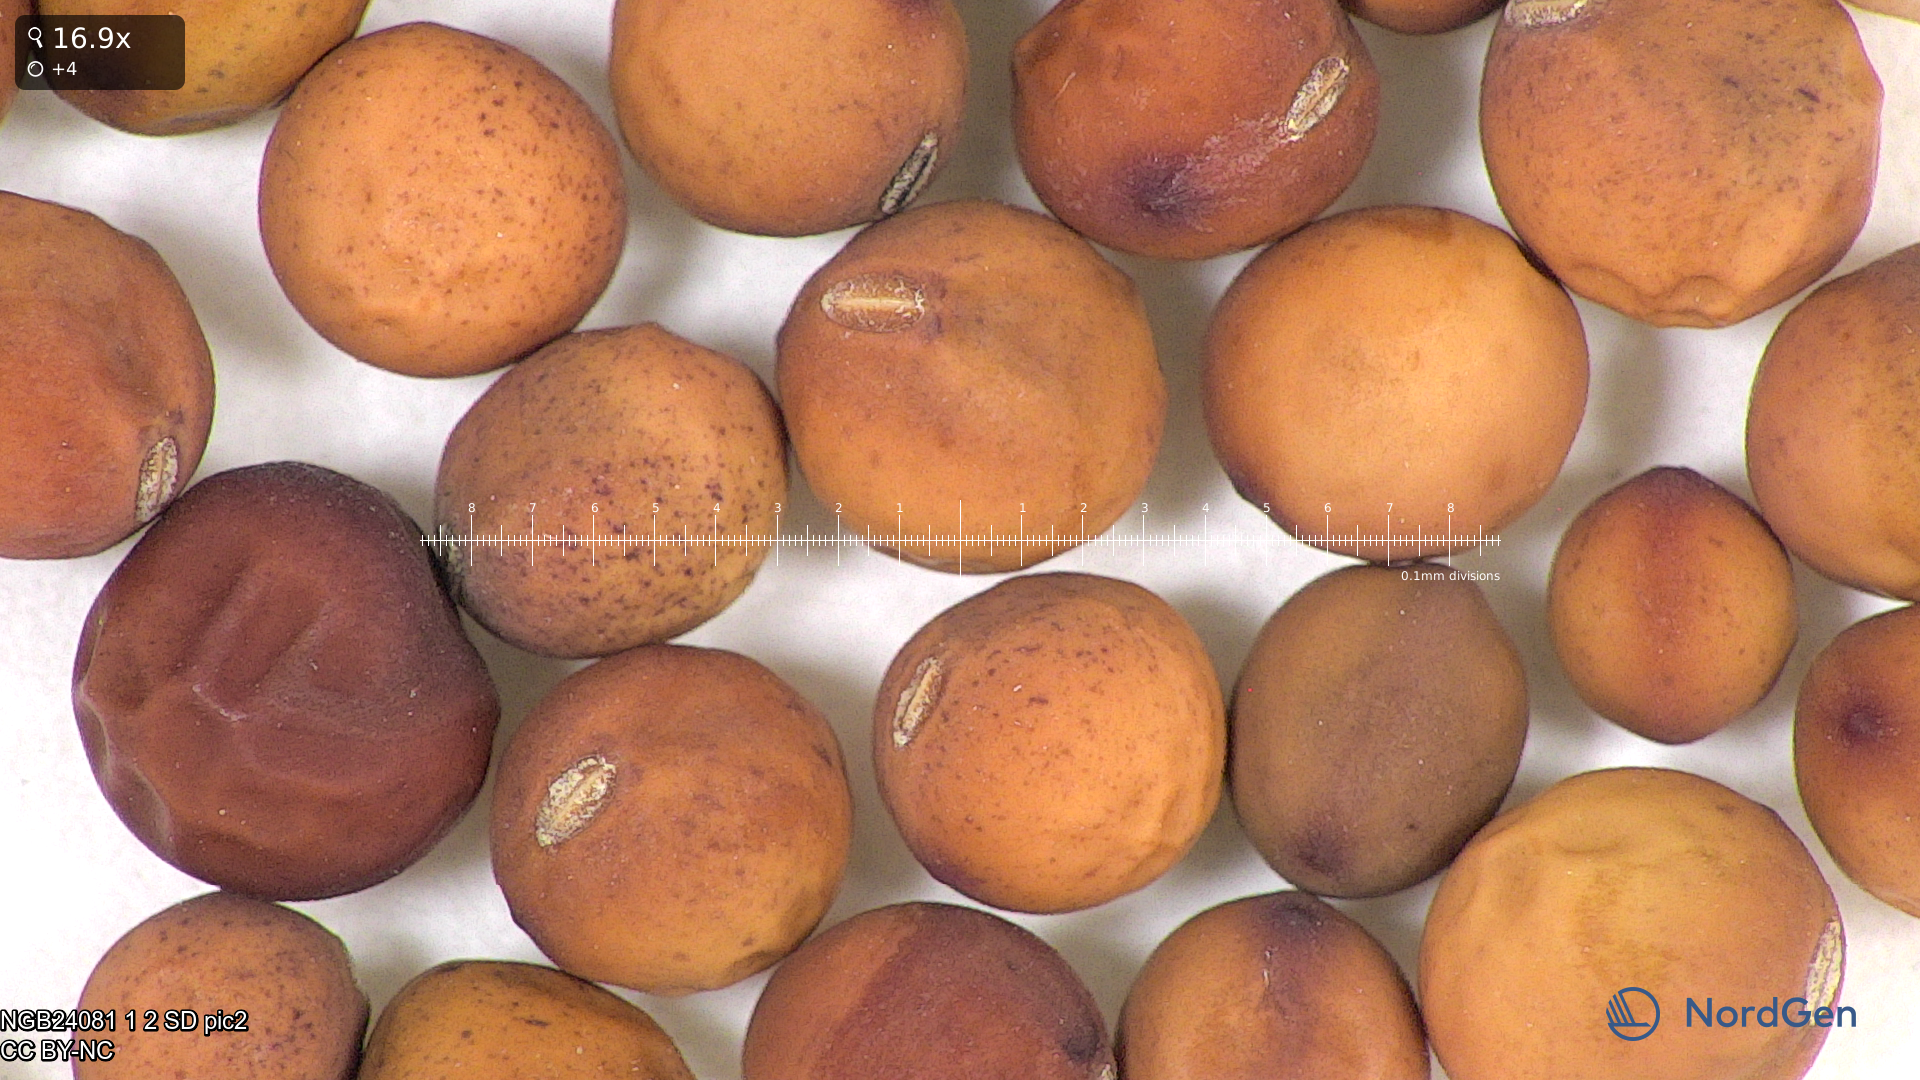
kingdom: Plantae
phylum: Tracheophyta
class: Magnoliopsida
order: Fabales
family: Fabaceae
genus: Lathyrus
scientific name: Lathyrus oleraceus
